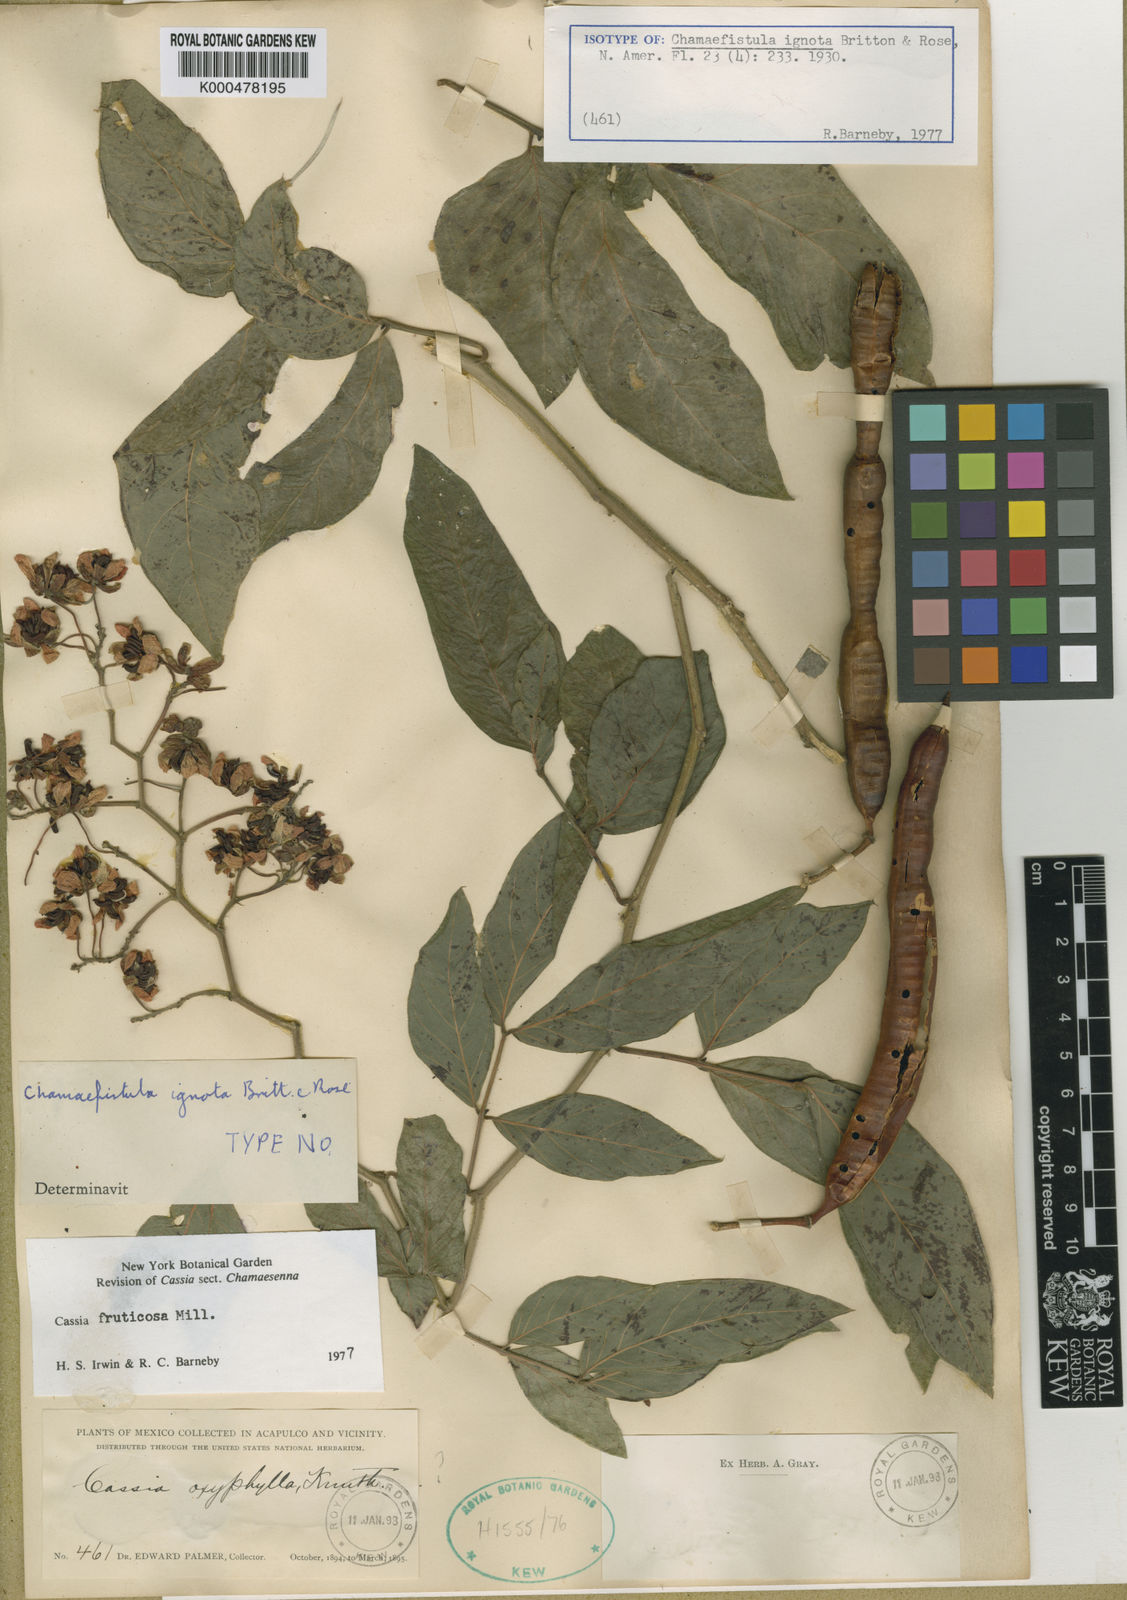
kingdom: Plantae
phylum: Tracheophyta
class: Magnoliopsida
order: Fabales
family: Fabaceae
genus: Senna
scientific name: Senna fruticosa
